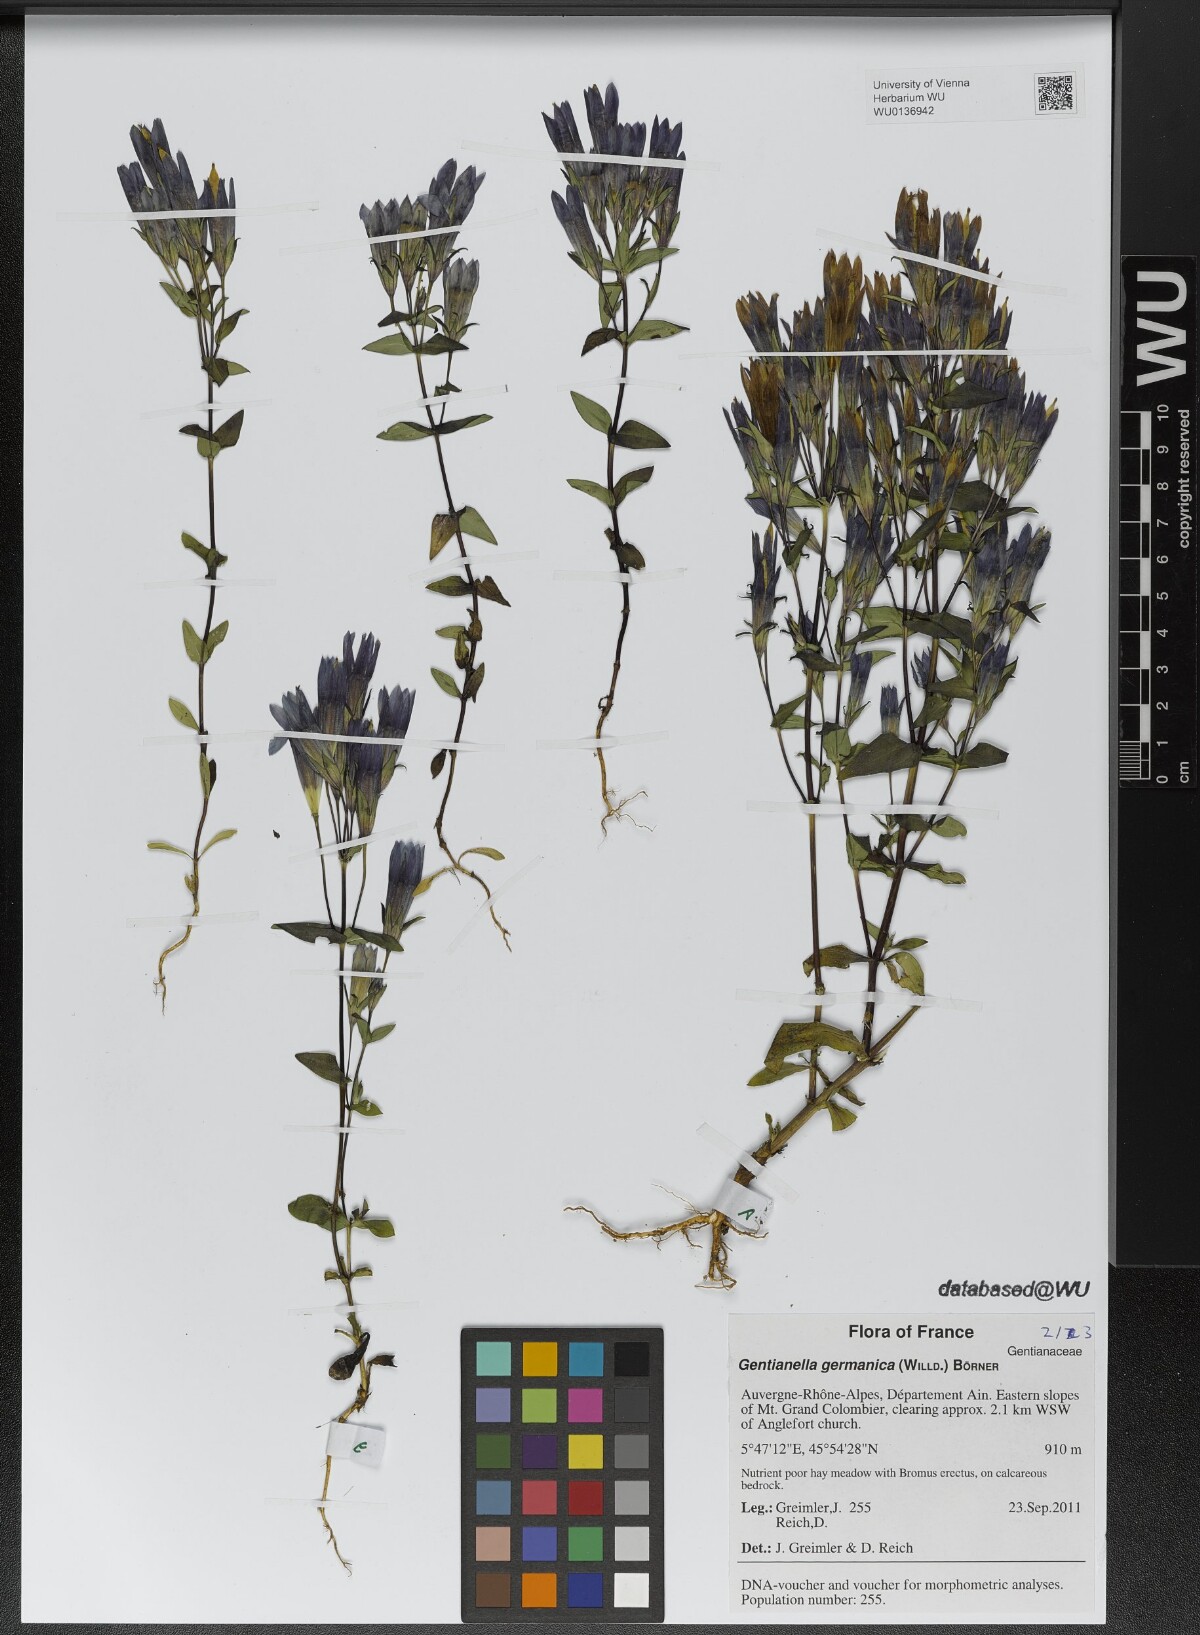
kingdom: Plantae
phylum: Tracheophyta
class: Magnoliopsida
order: Gentianales
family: Gentianaceae
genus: Gentianella
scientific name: Gentianella germanica
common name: Chiltern-gentian
